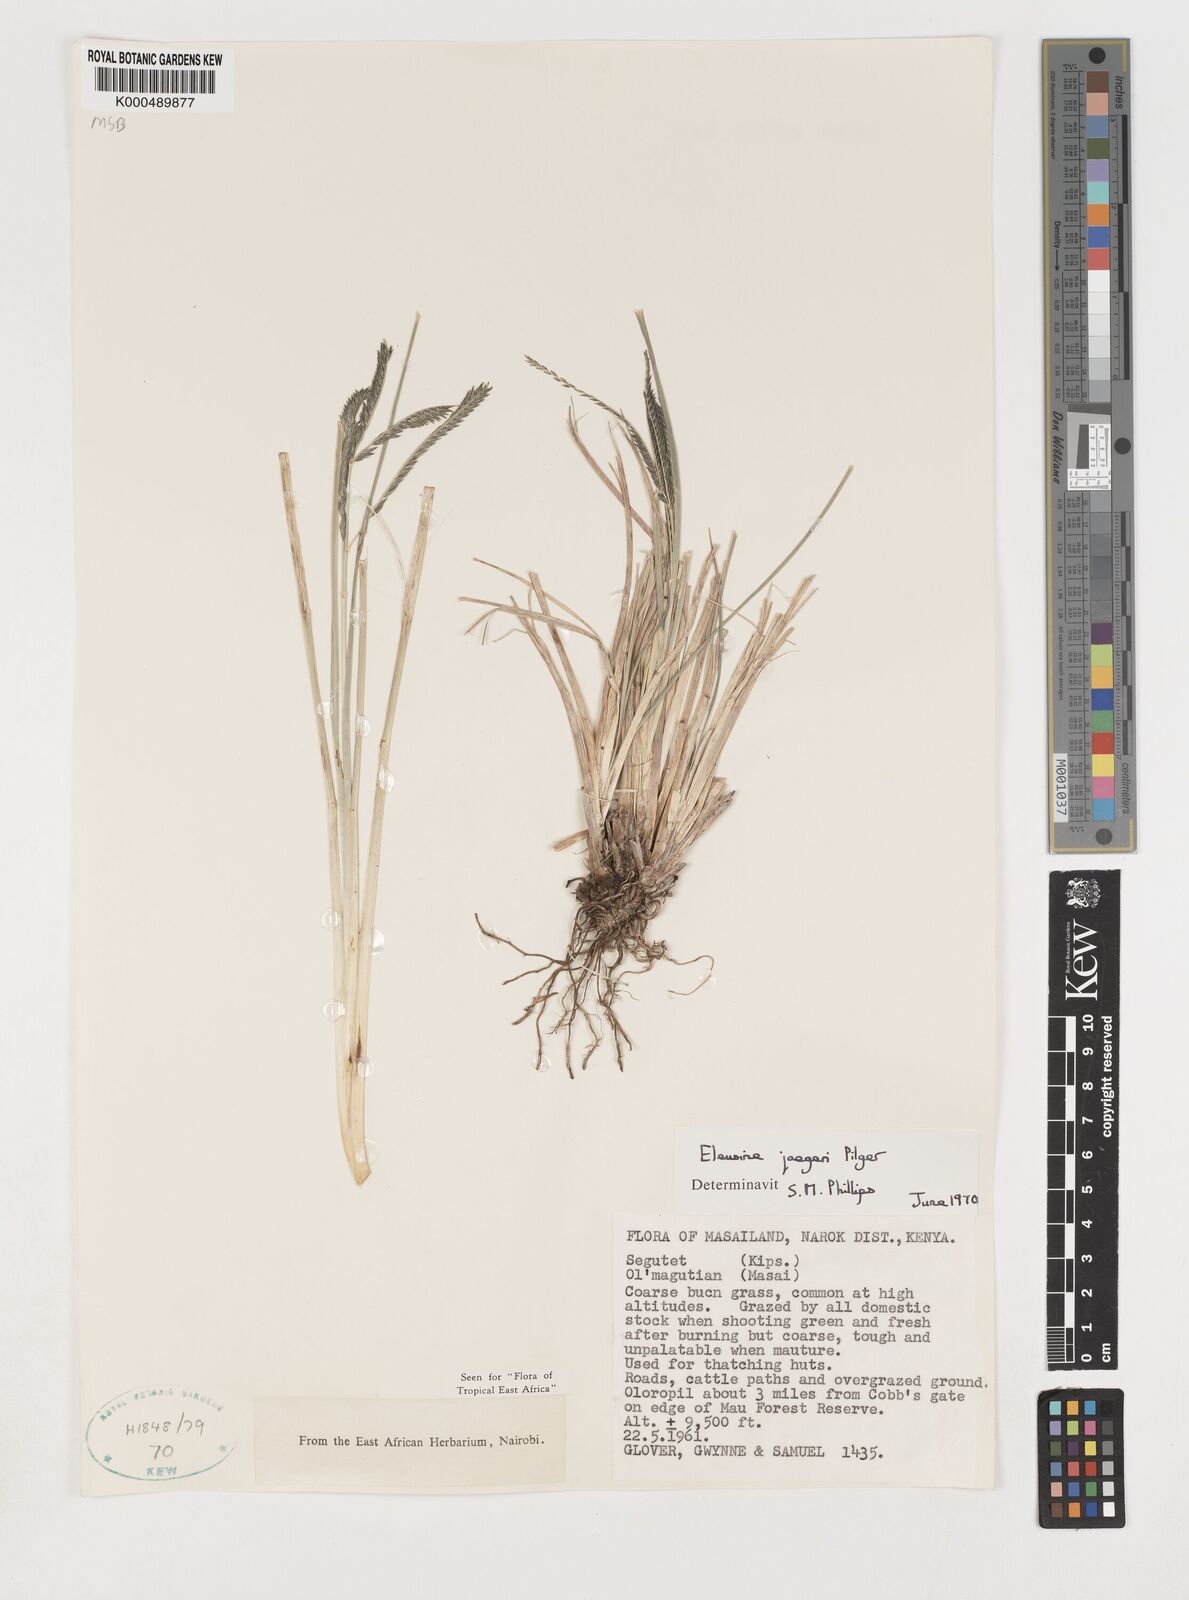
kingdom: Plantae
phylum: Tracheophyta
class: Liliopsida
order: Poales
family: Poaceae
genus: Eleusine
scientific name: Eleusine jaegeri
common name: Manyatta grass
